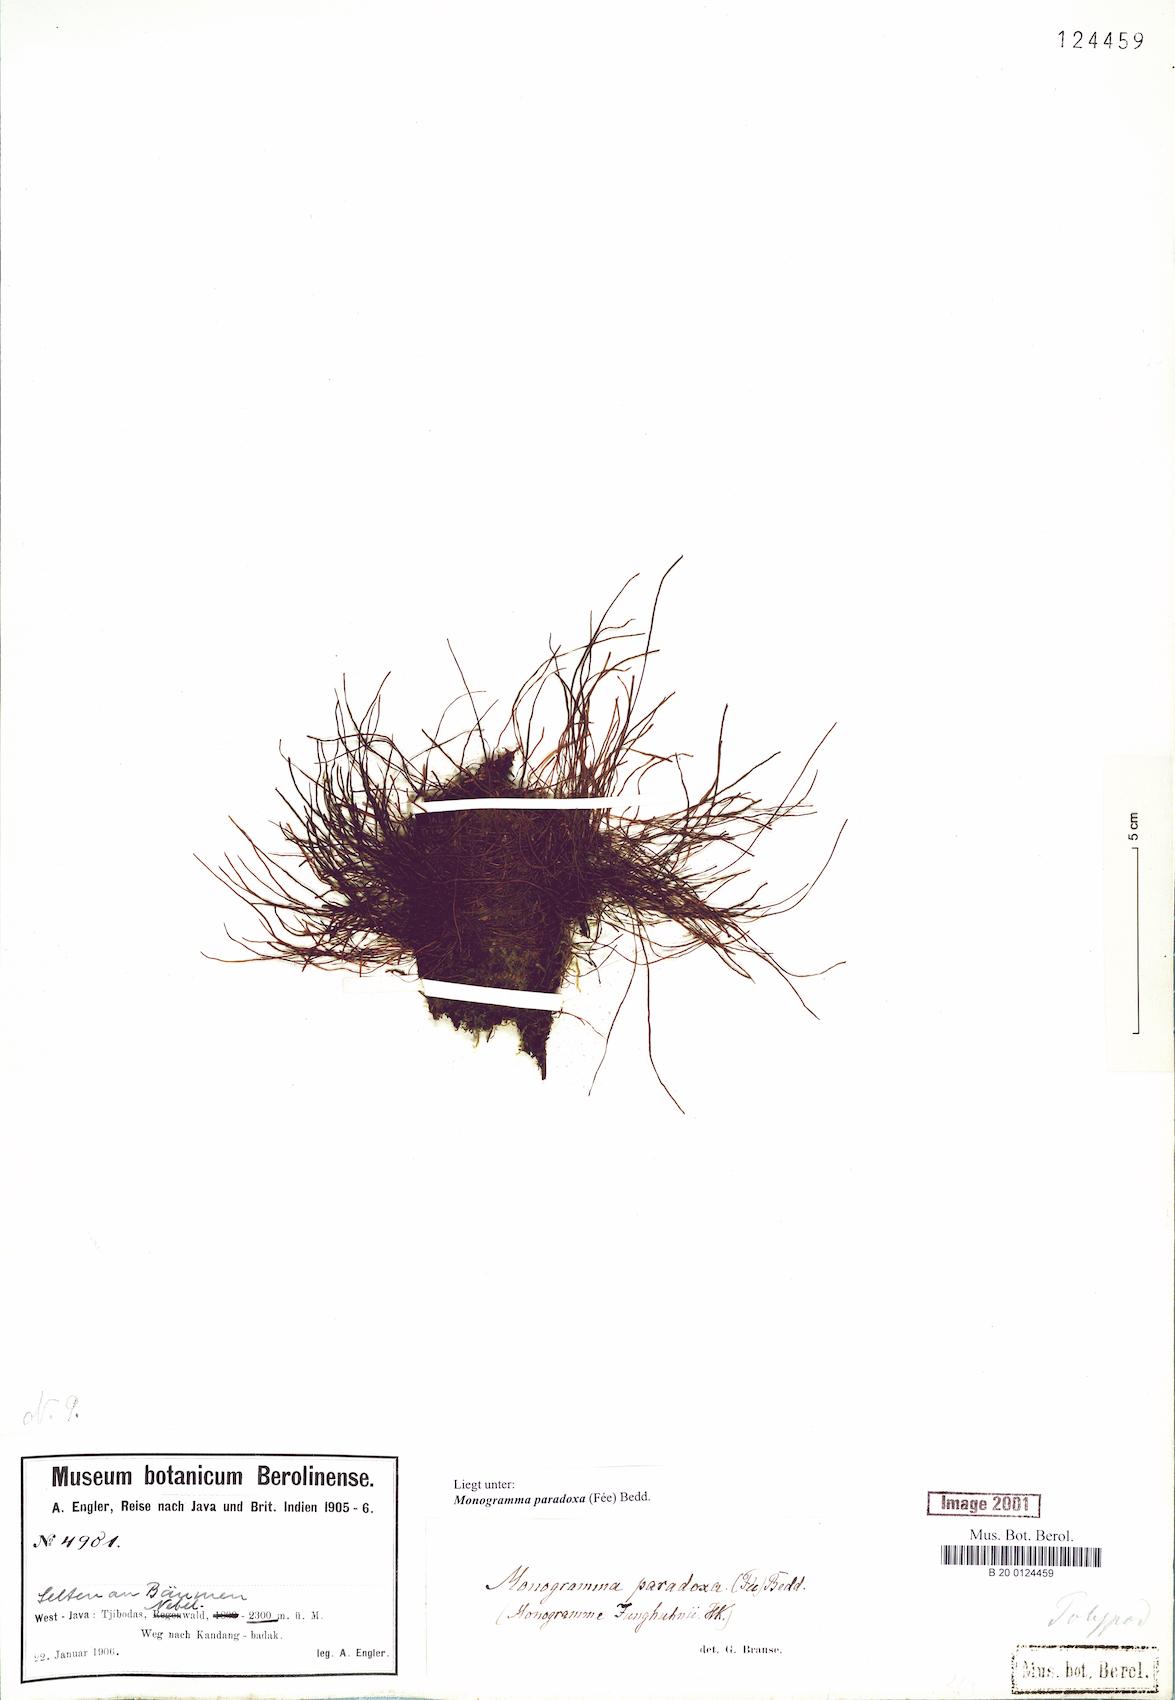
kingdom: Plantae
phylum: Tracheophyta
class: Polypodiopsida
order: Polypodiales
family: Pteridaceae
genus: Vaginularia
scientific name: Vaginularia paradoxa
